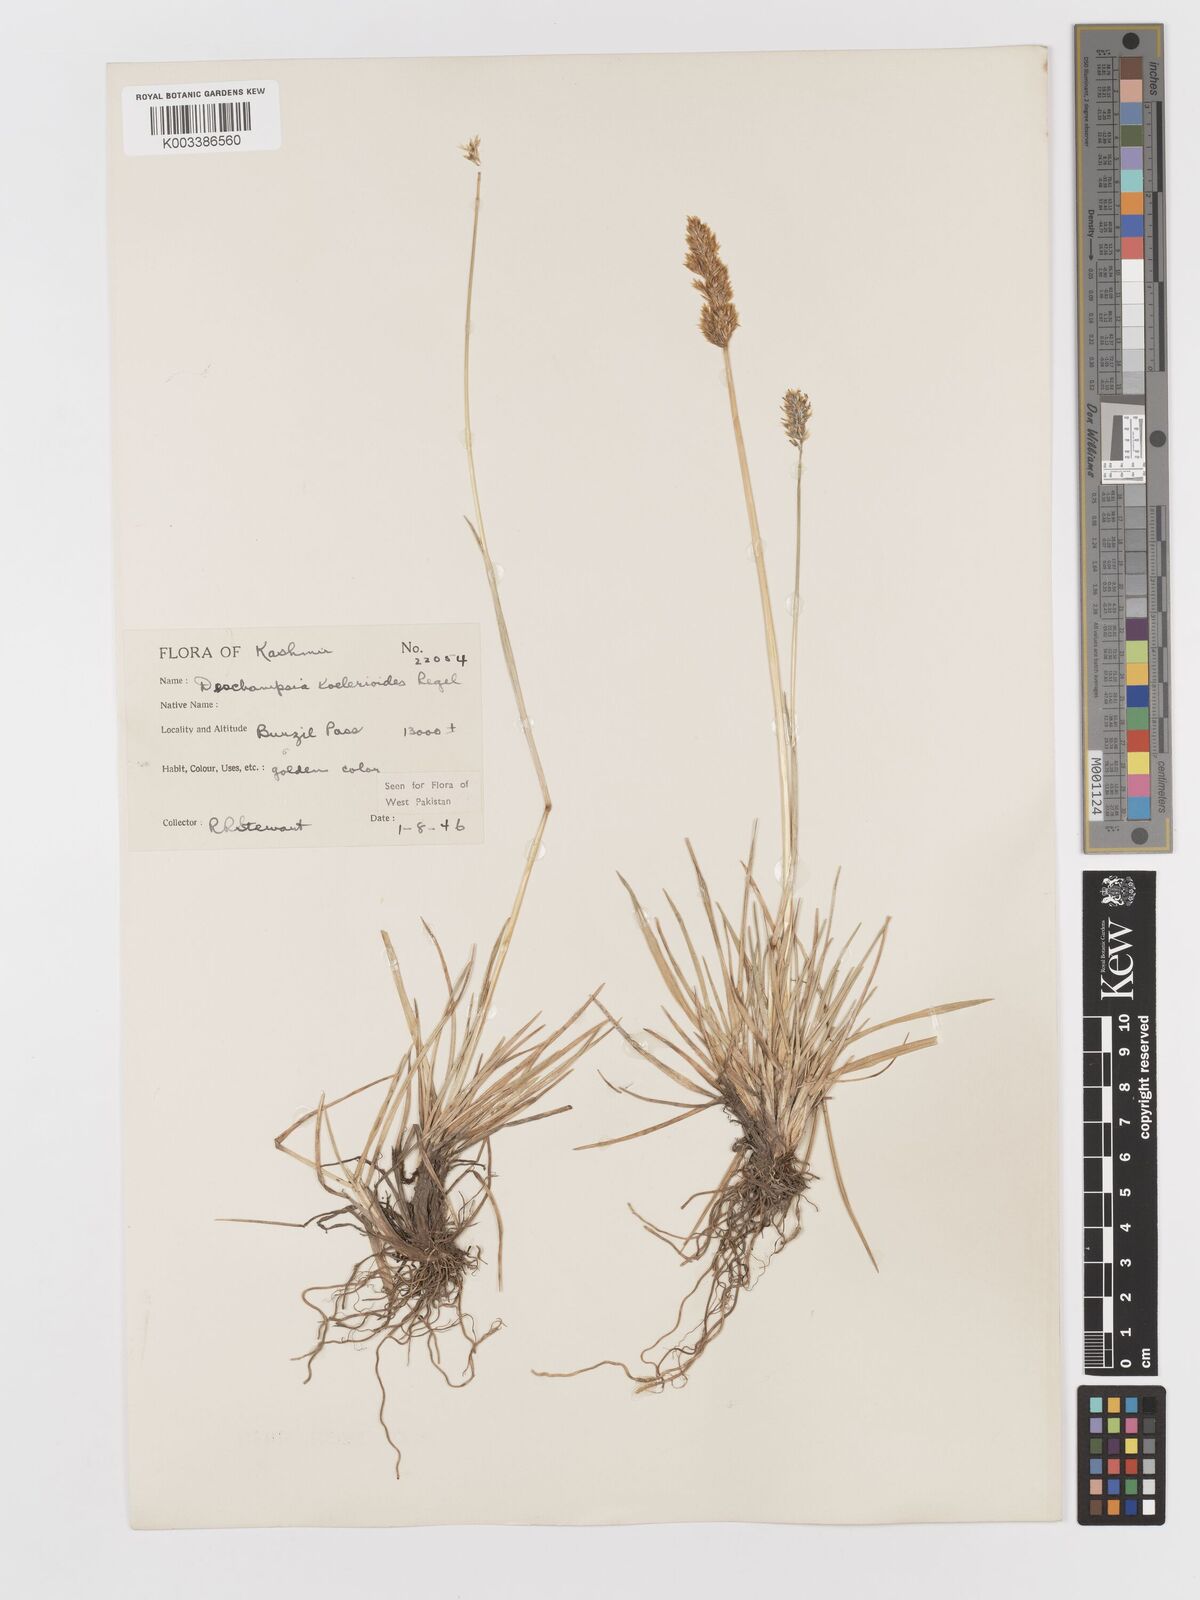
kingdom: Plantae
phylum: Tracheophyta
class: Liliopsida
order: Poales
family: Poaceae
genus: Deschampsia
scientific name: Deschampsia koelerioides
